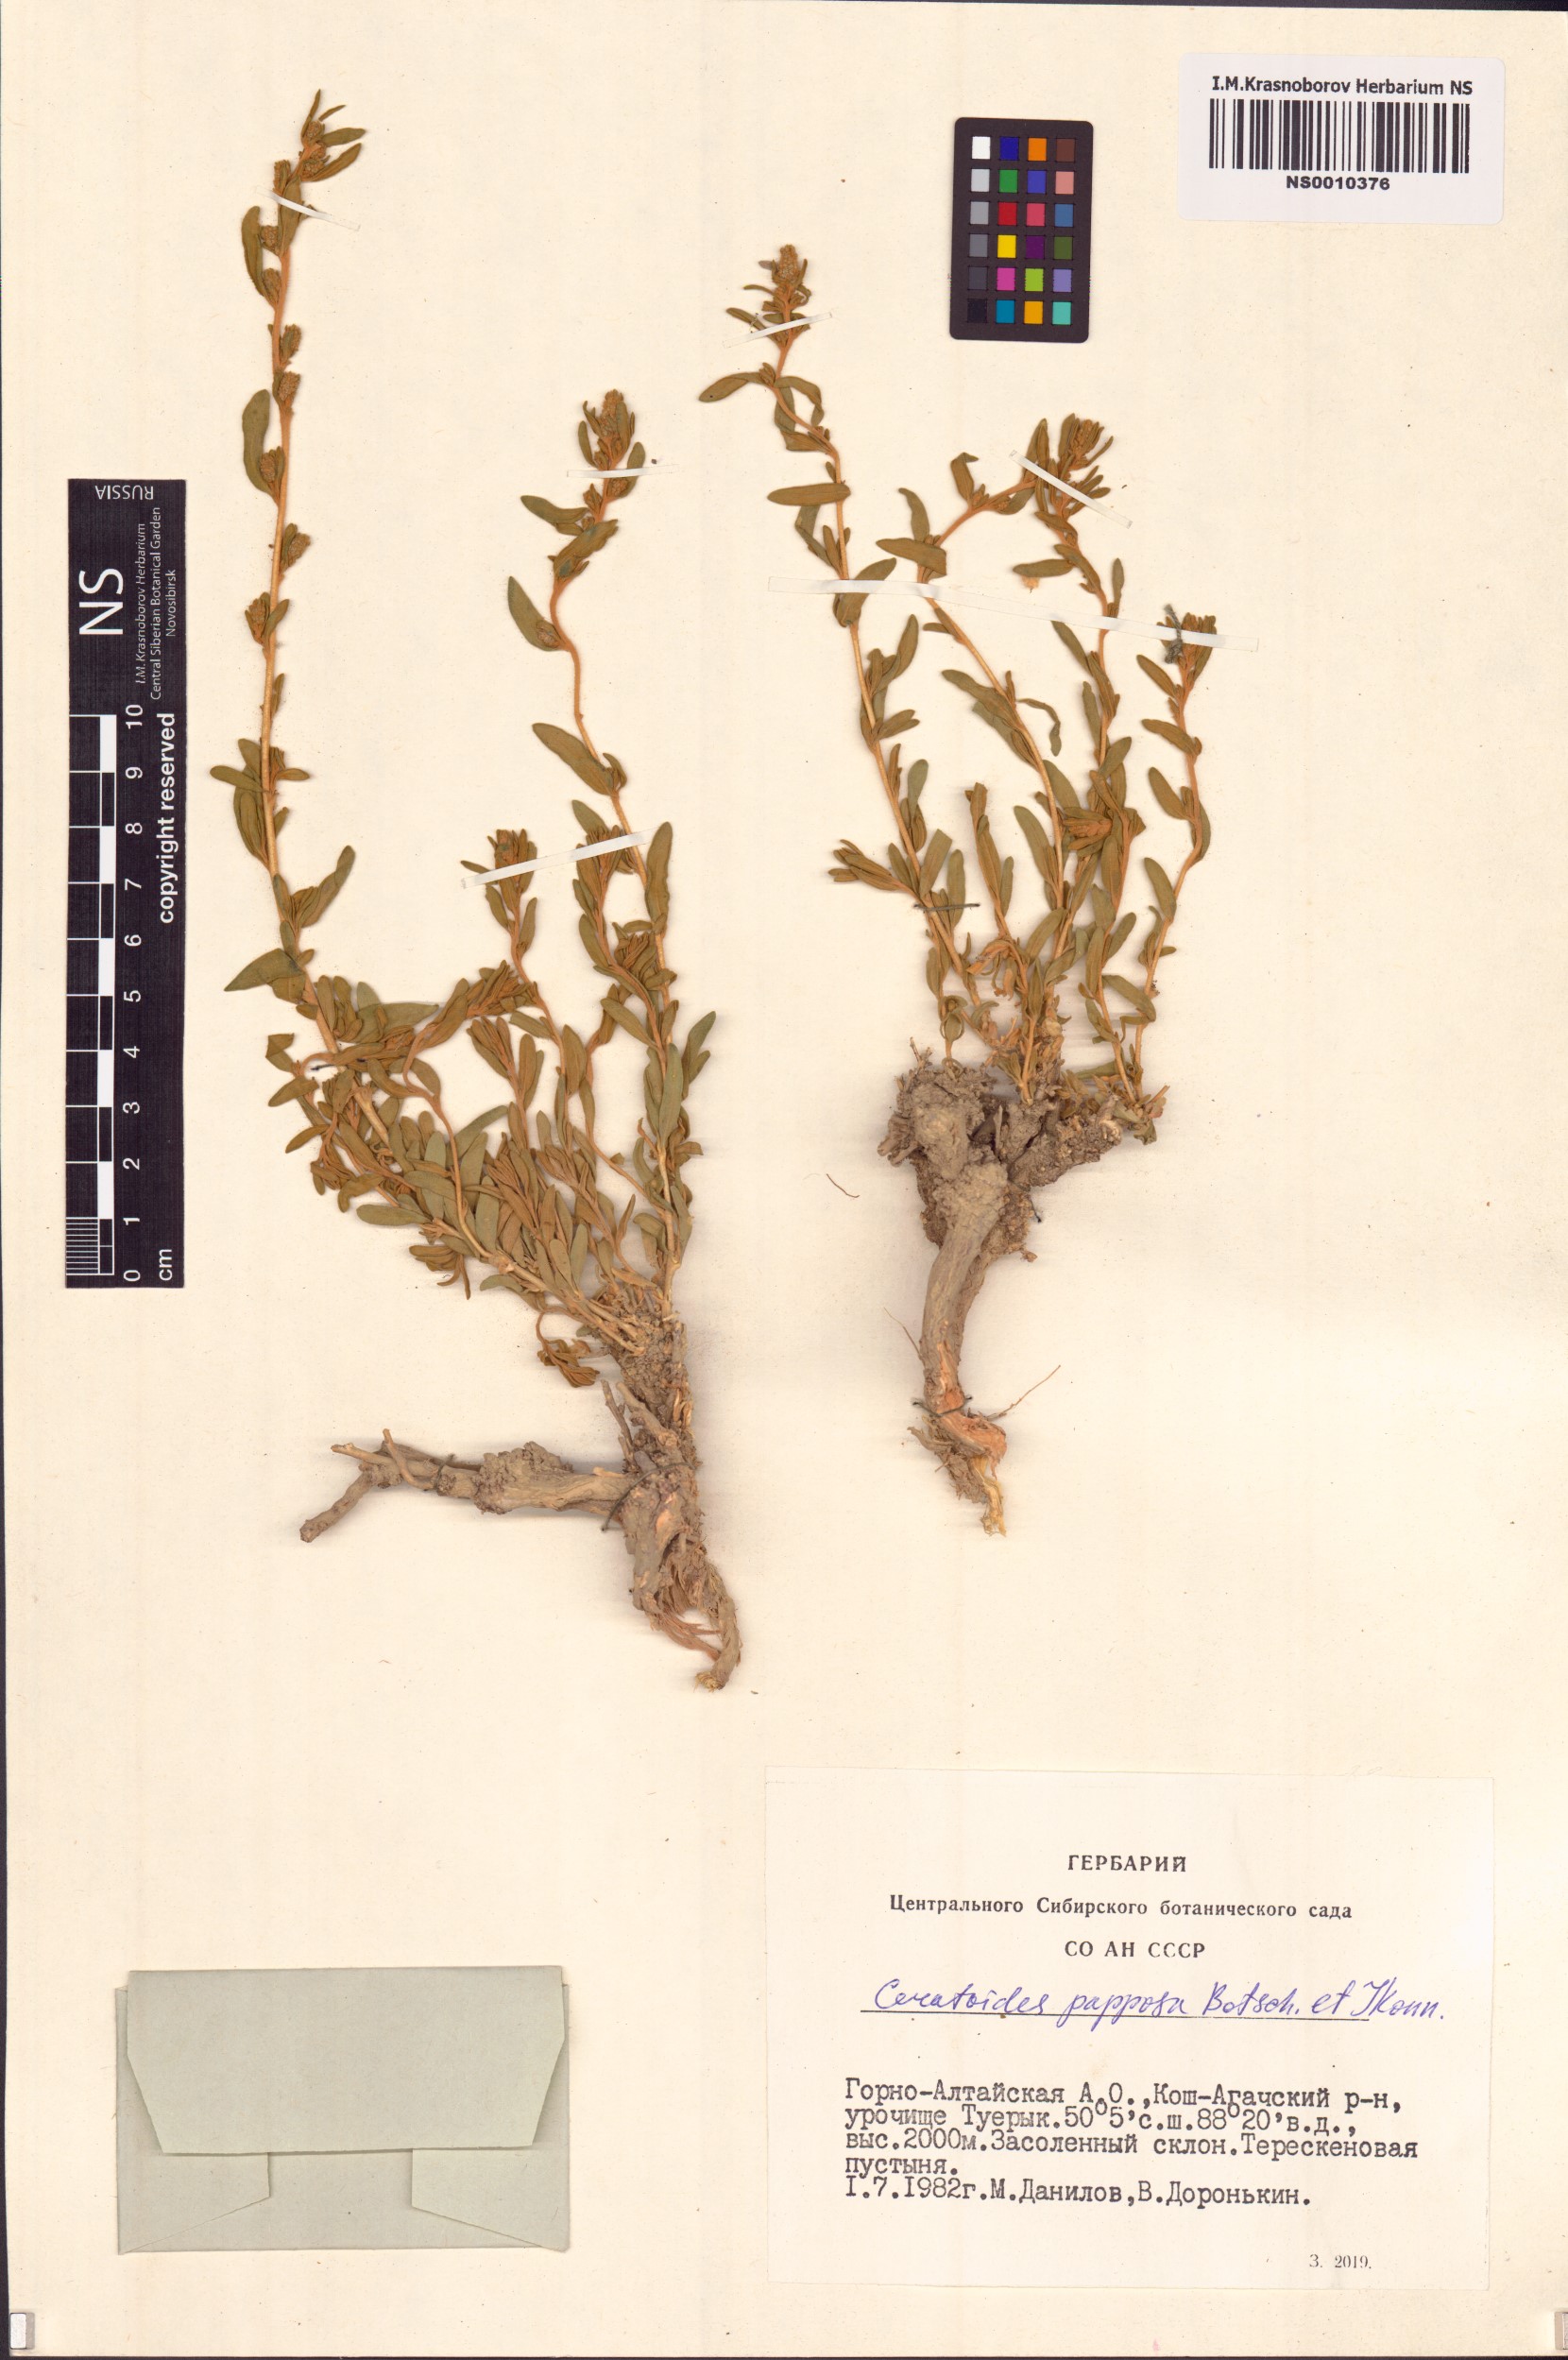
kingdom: Plantae
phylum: Tracheophyta
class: Magnoliopsida
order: Caryophyllales
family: Amaranthaceae
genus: Krascheninnikovia
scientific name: Krascheninnikovia ceratoides
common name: Pamirian winterfat
